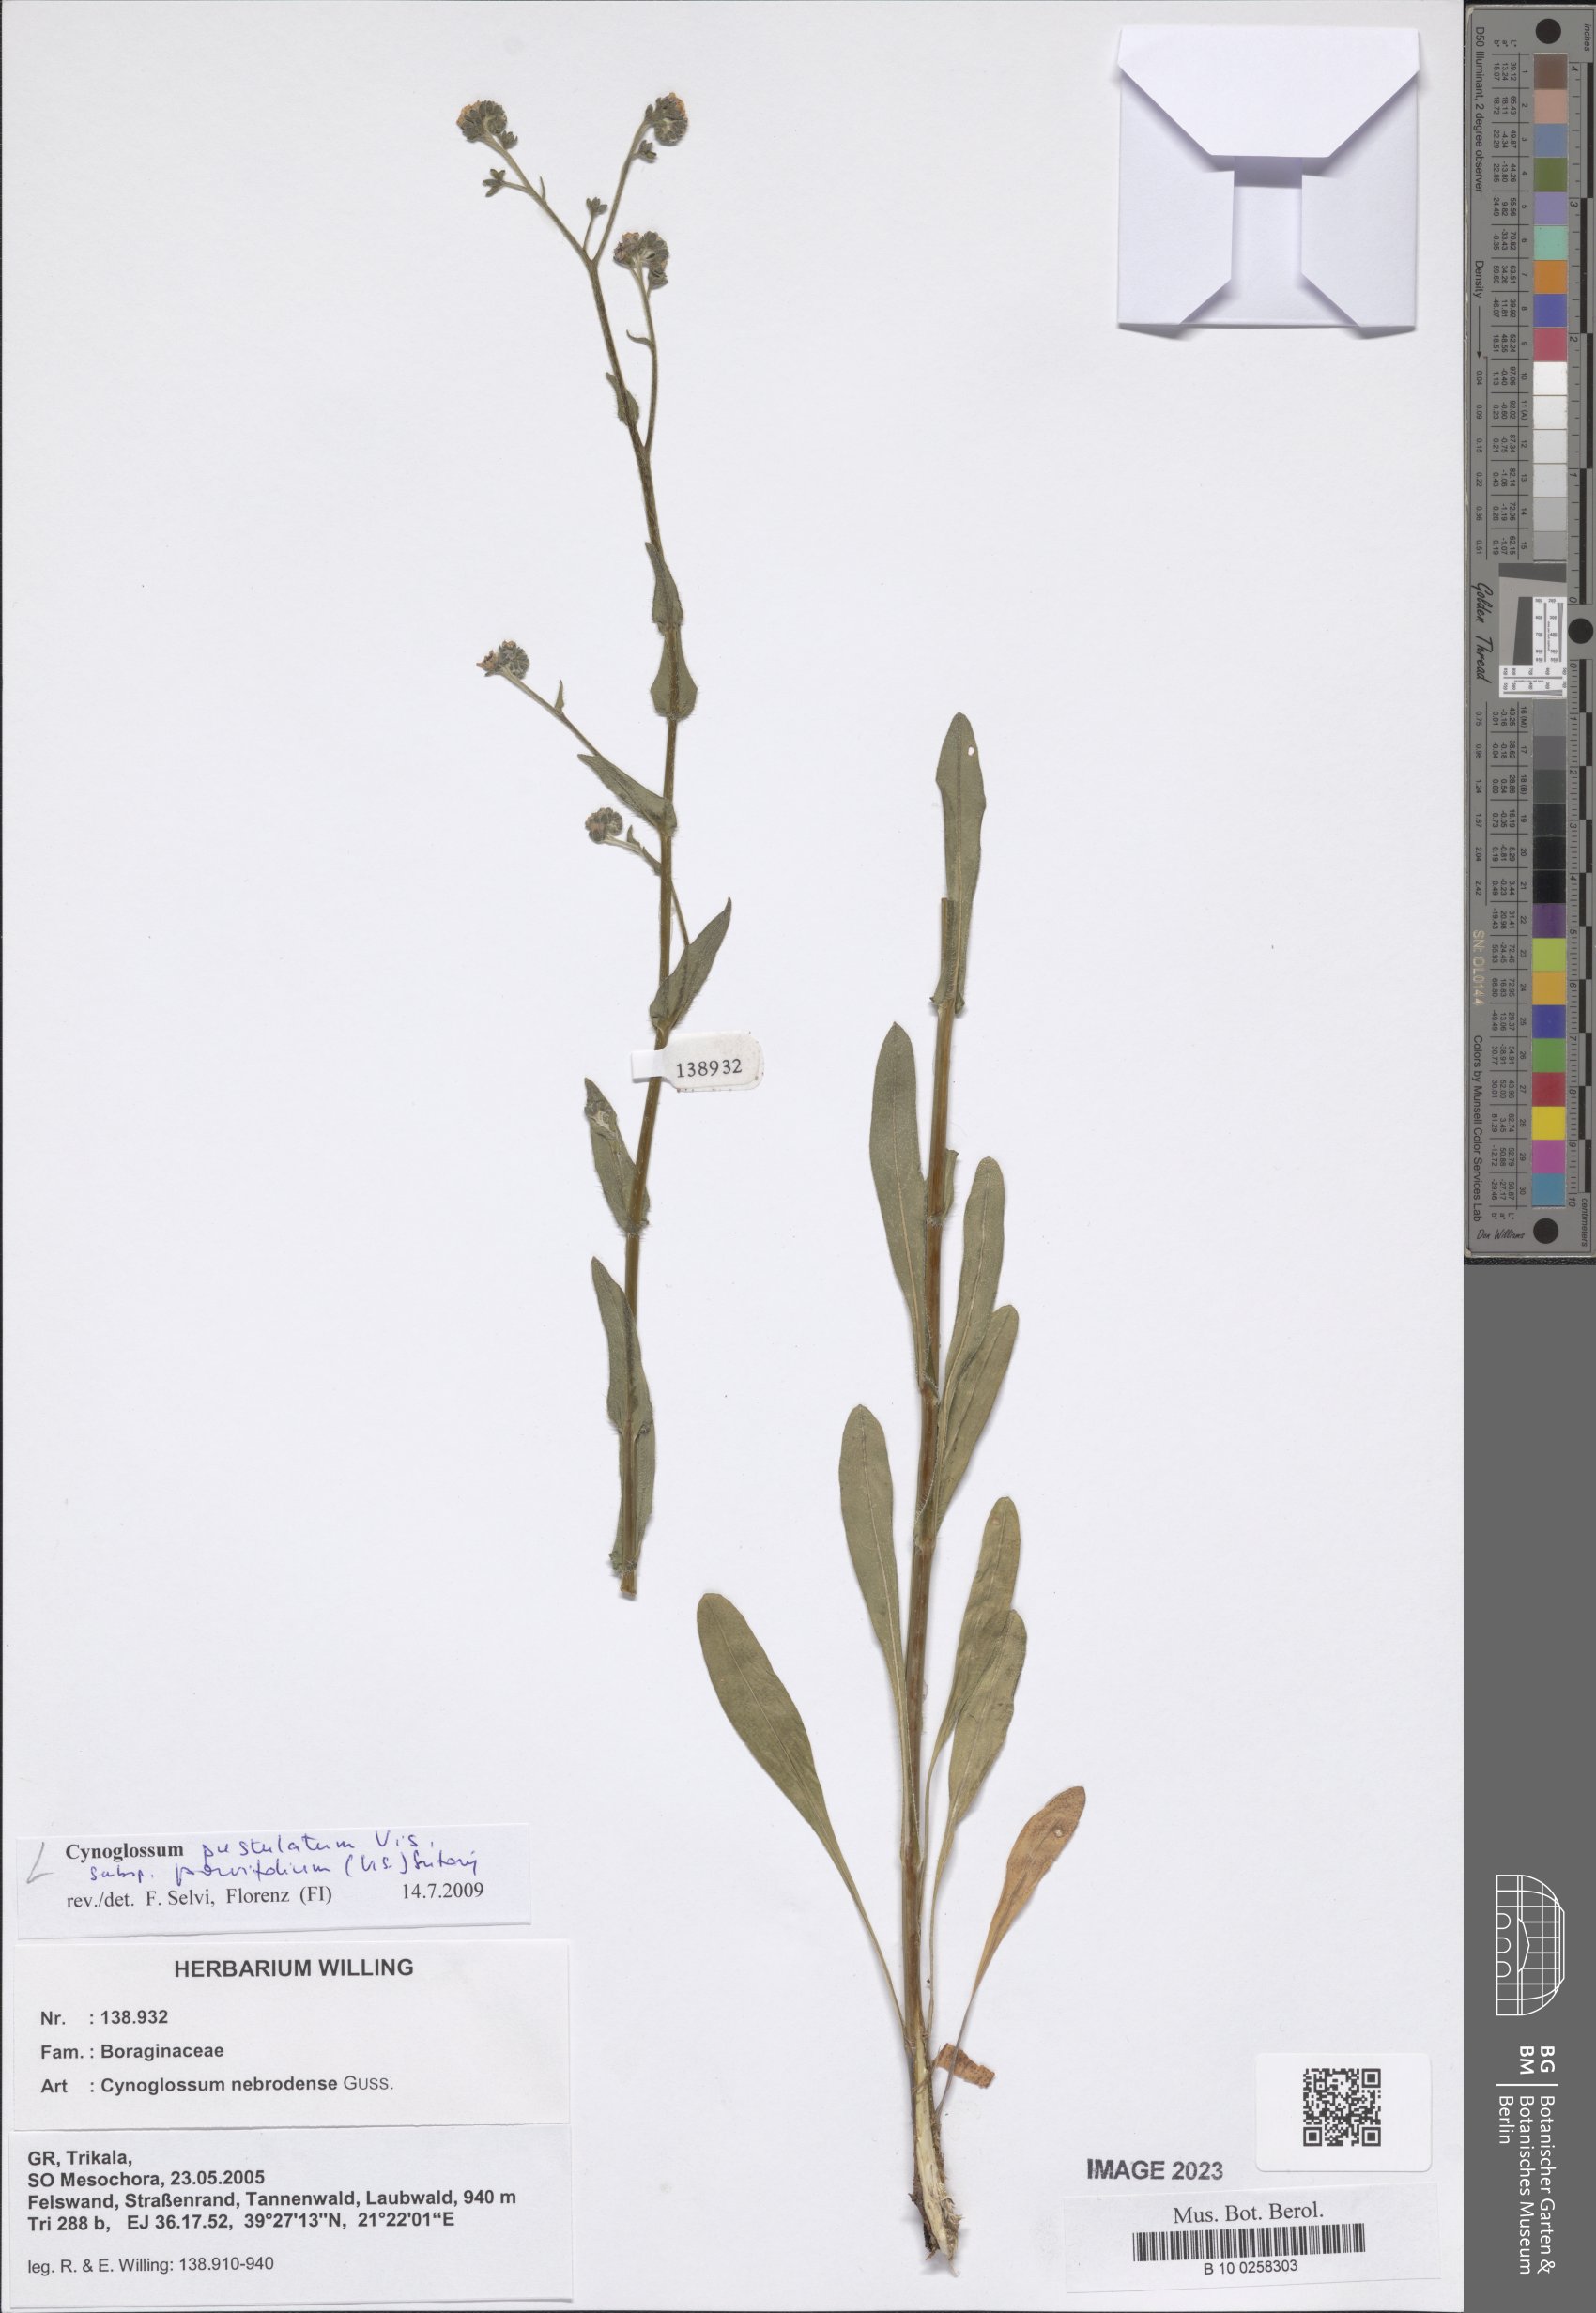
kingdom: Plantae
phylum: Tracheophyta
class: Magnoliopsida
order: Boraginales
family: Boraginaceae
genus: Cynoglossum
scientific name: Cynoglossum pustulatum
